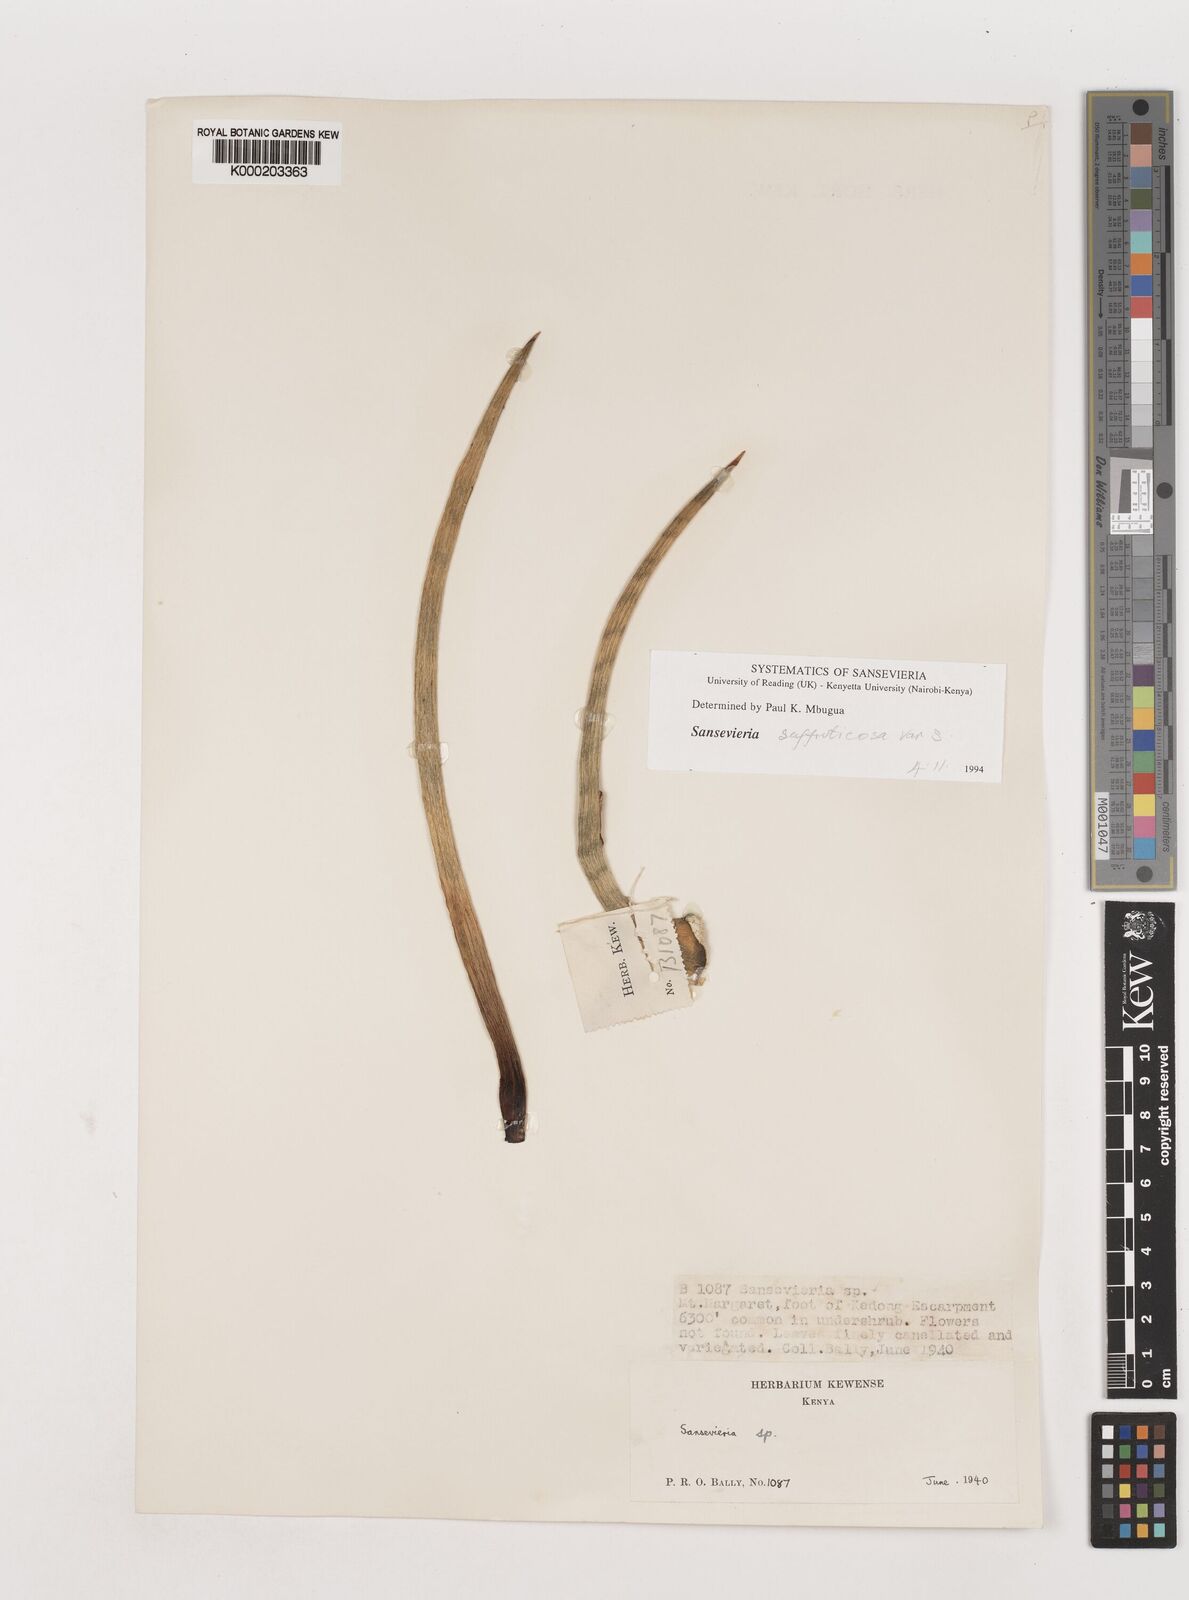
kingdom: Plantae
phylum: Tracheophyta
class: Liliopsida
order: Asparagales
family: Asparagaceae
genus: Dracaena
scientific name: Dracaena suffruticosa
